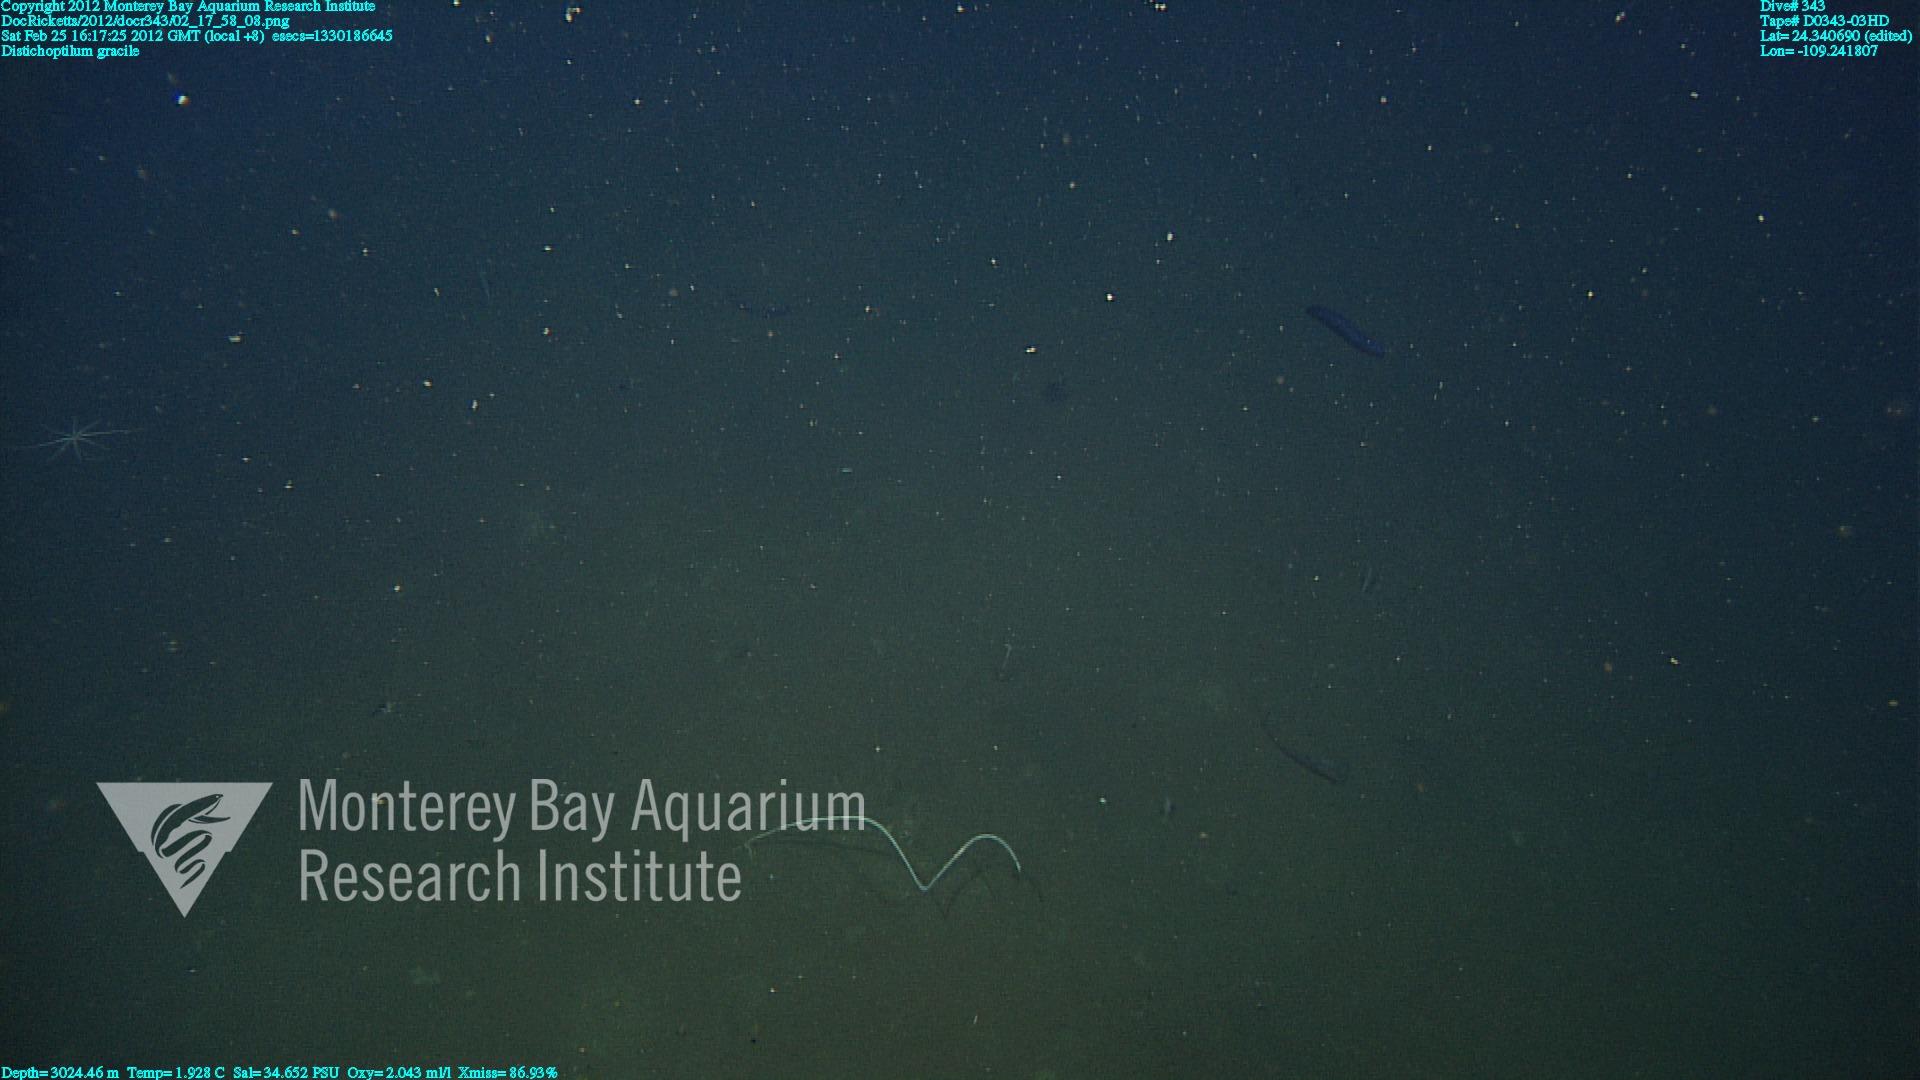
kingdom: Animalia
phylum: Cnidaria
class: Anthozoa
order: Scleralcyonacea
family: Protoptilidae
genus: Distichoptilum
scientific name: Distichoptilum gracile
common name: Slender sea pen
